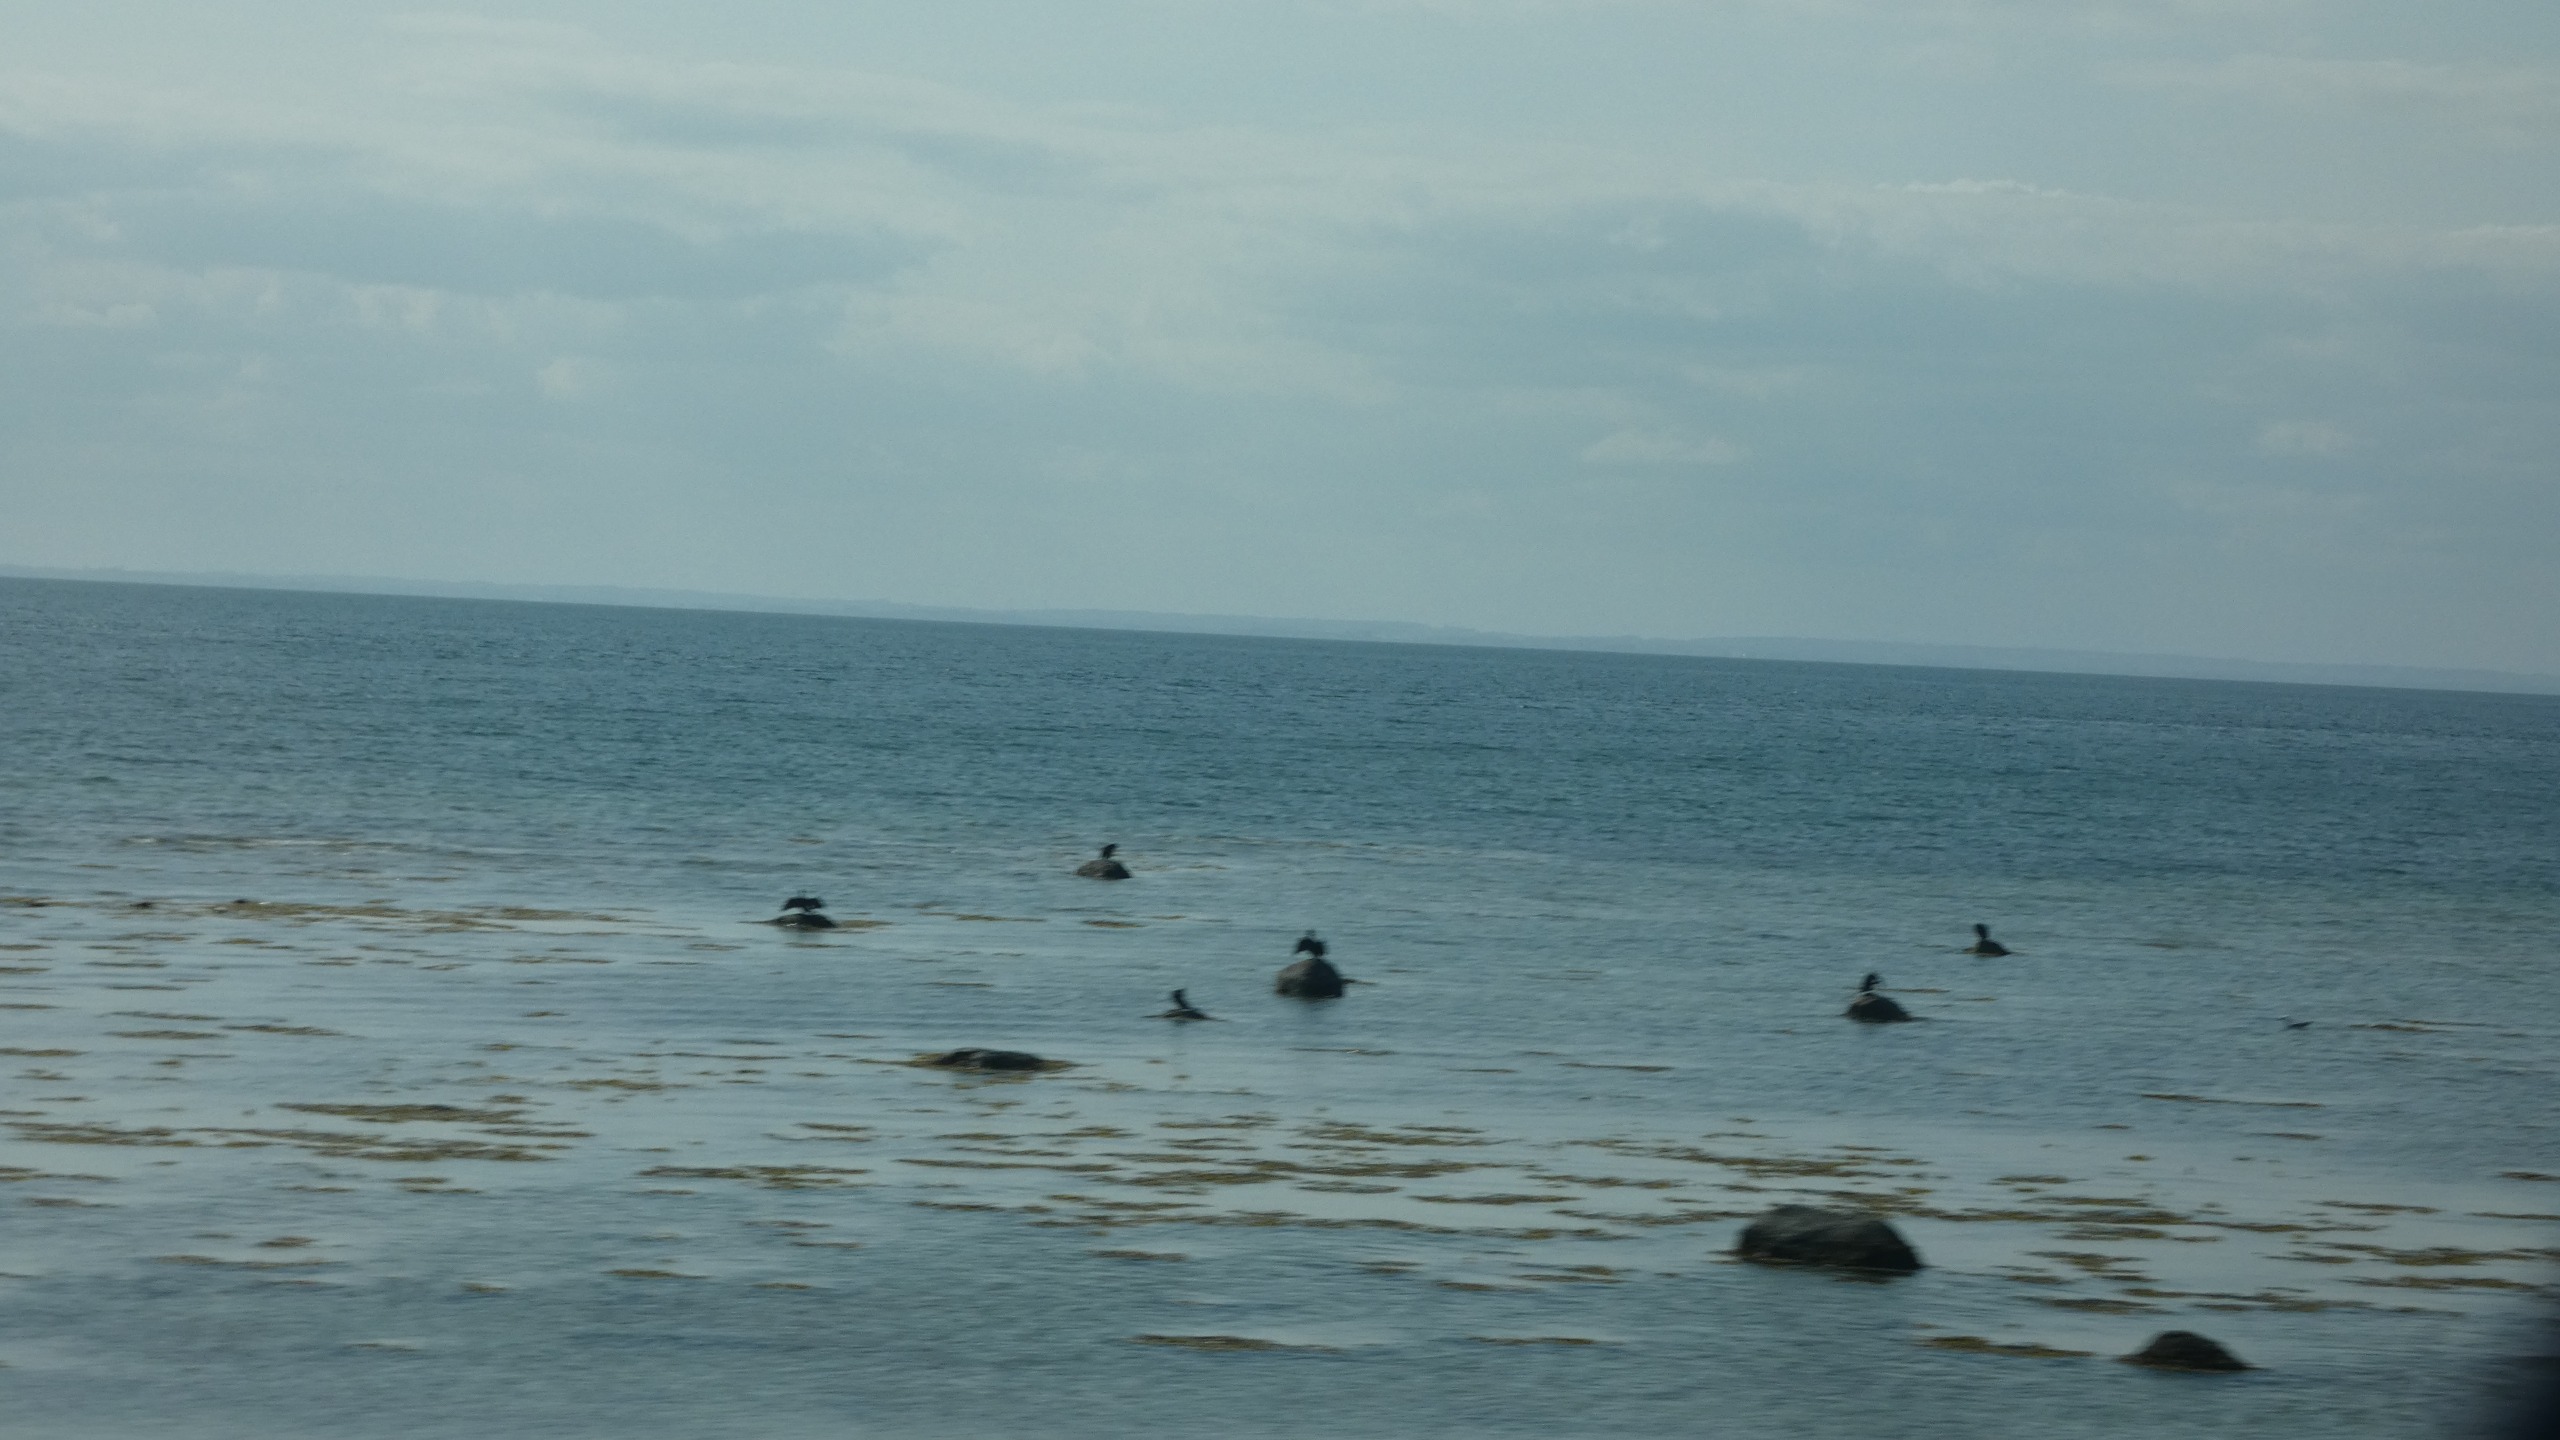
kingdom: Animalia
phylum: Chordata
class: Aves
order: Suliformes
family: Phalacrocoracidae
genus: Phalacrocorax
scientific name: Phalacrocorax carbo
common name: Skarv
